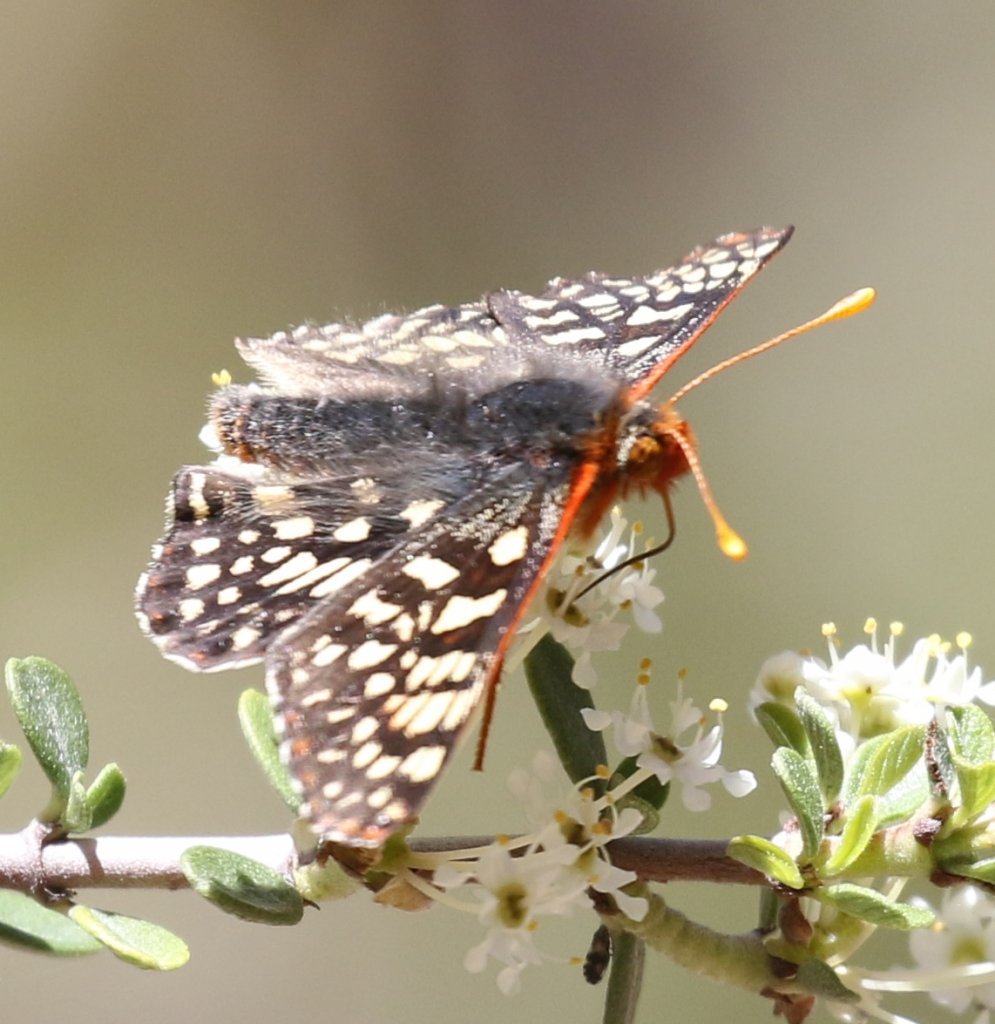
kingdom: Animalia
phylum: Arthropoda
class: Insecta
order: Lepidoptera
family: Nymphalidae
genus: Occidryas
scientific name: Occidryas chalcedona
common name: Chalcedon Checkerspot
